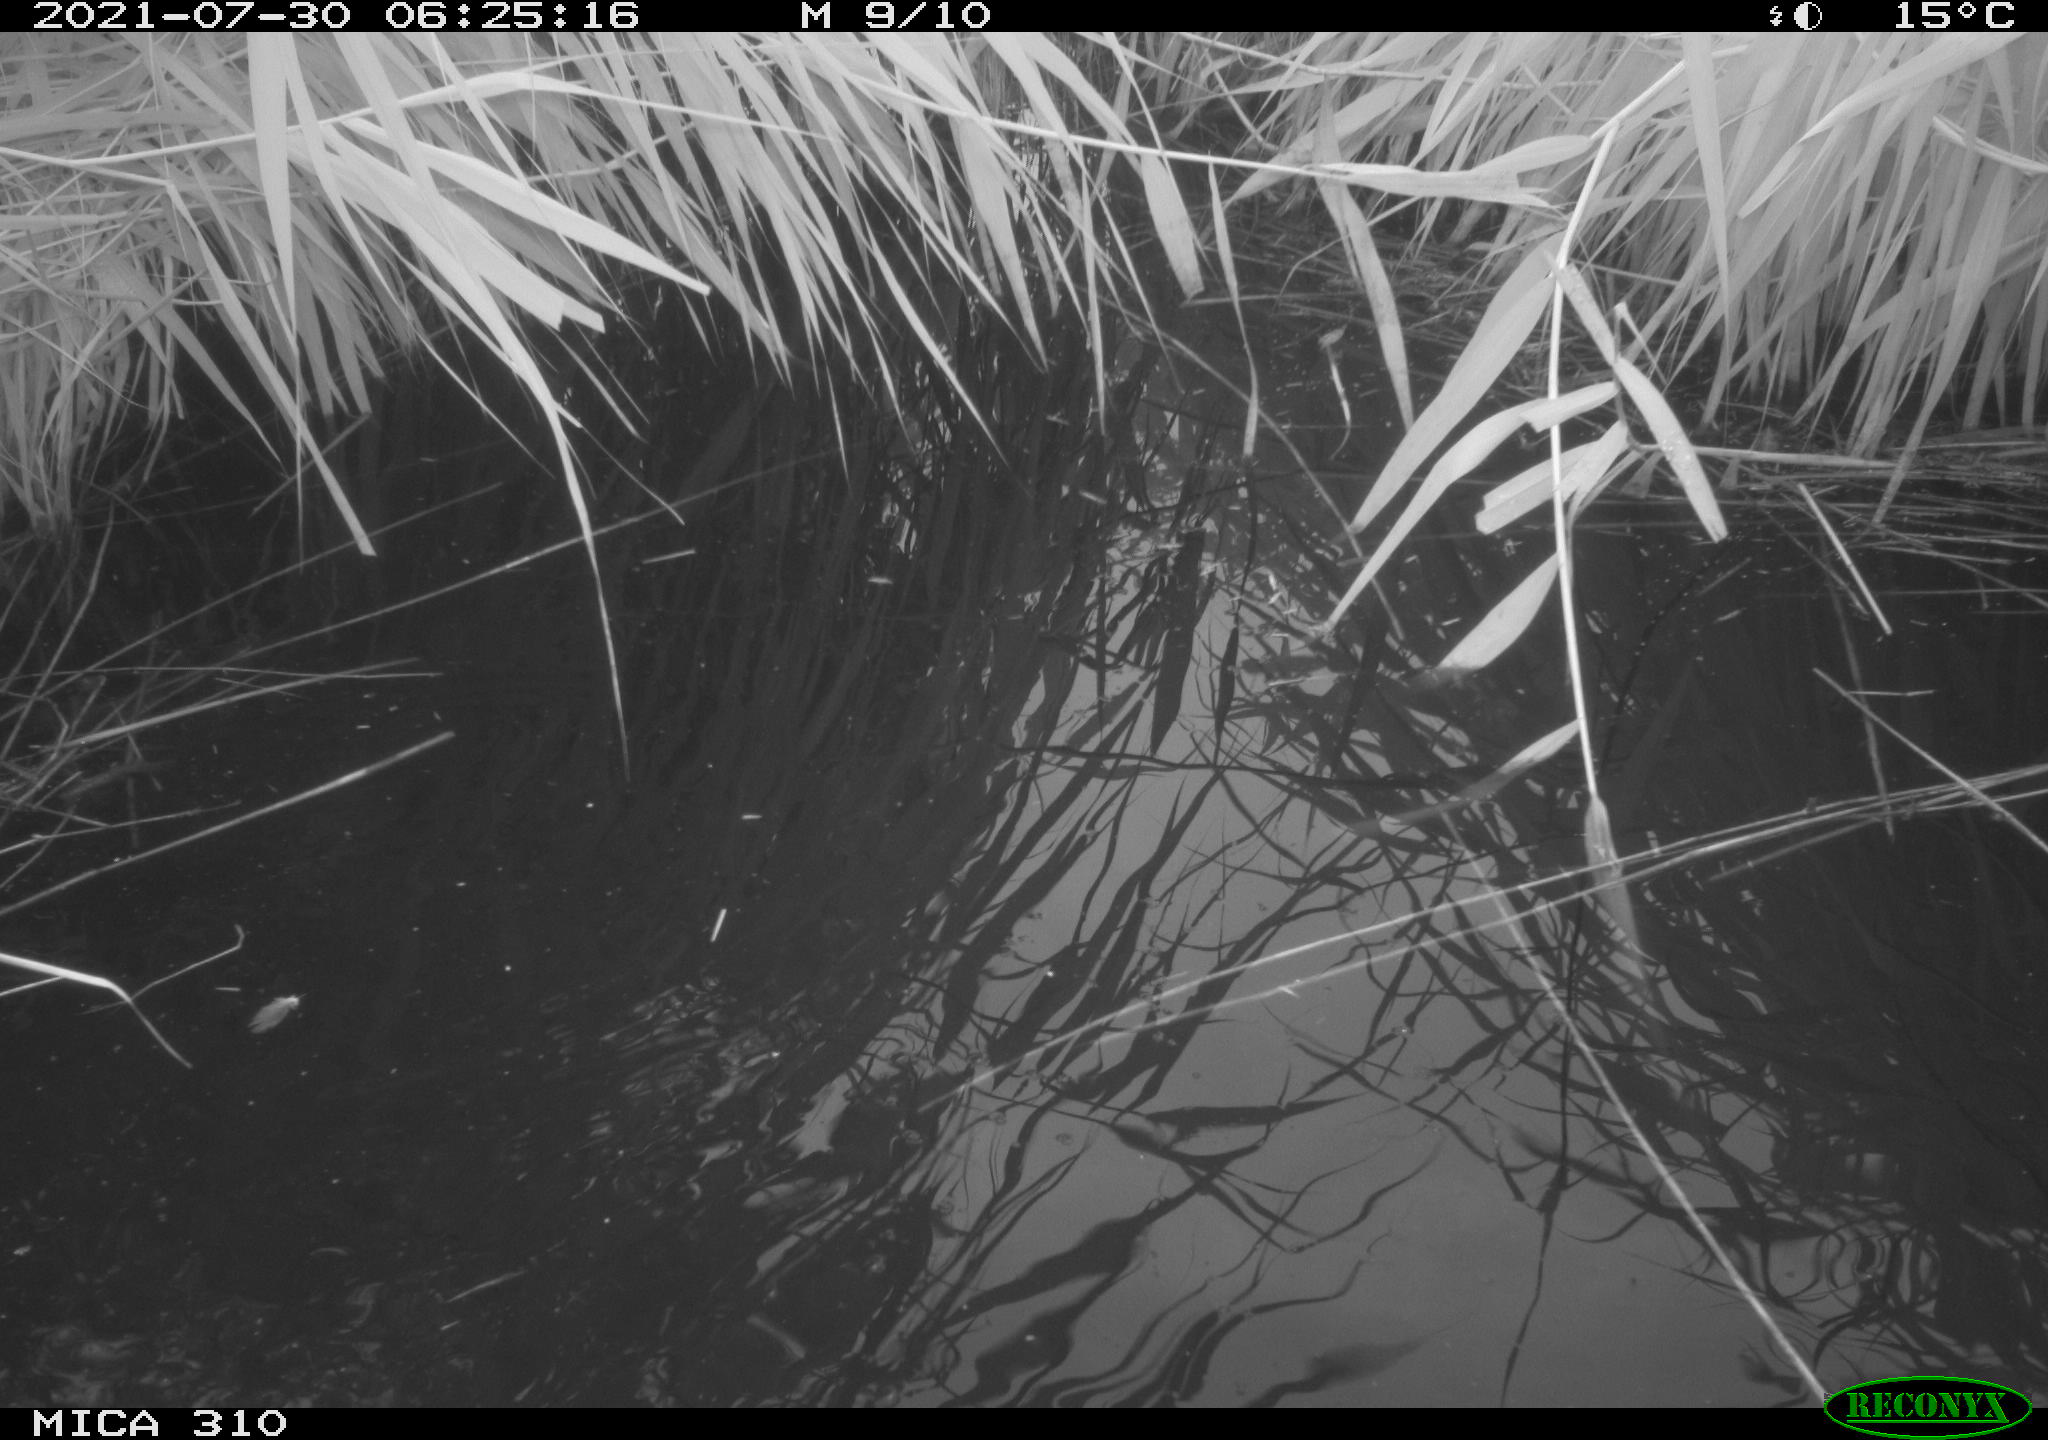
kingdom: Animalia
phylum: Chordata
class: Aves
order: Gruiformes
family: Rallidae
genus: Gallinula
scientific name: Gallinula chloropus
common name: Common moorhen
